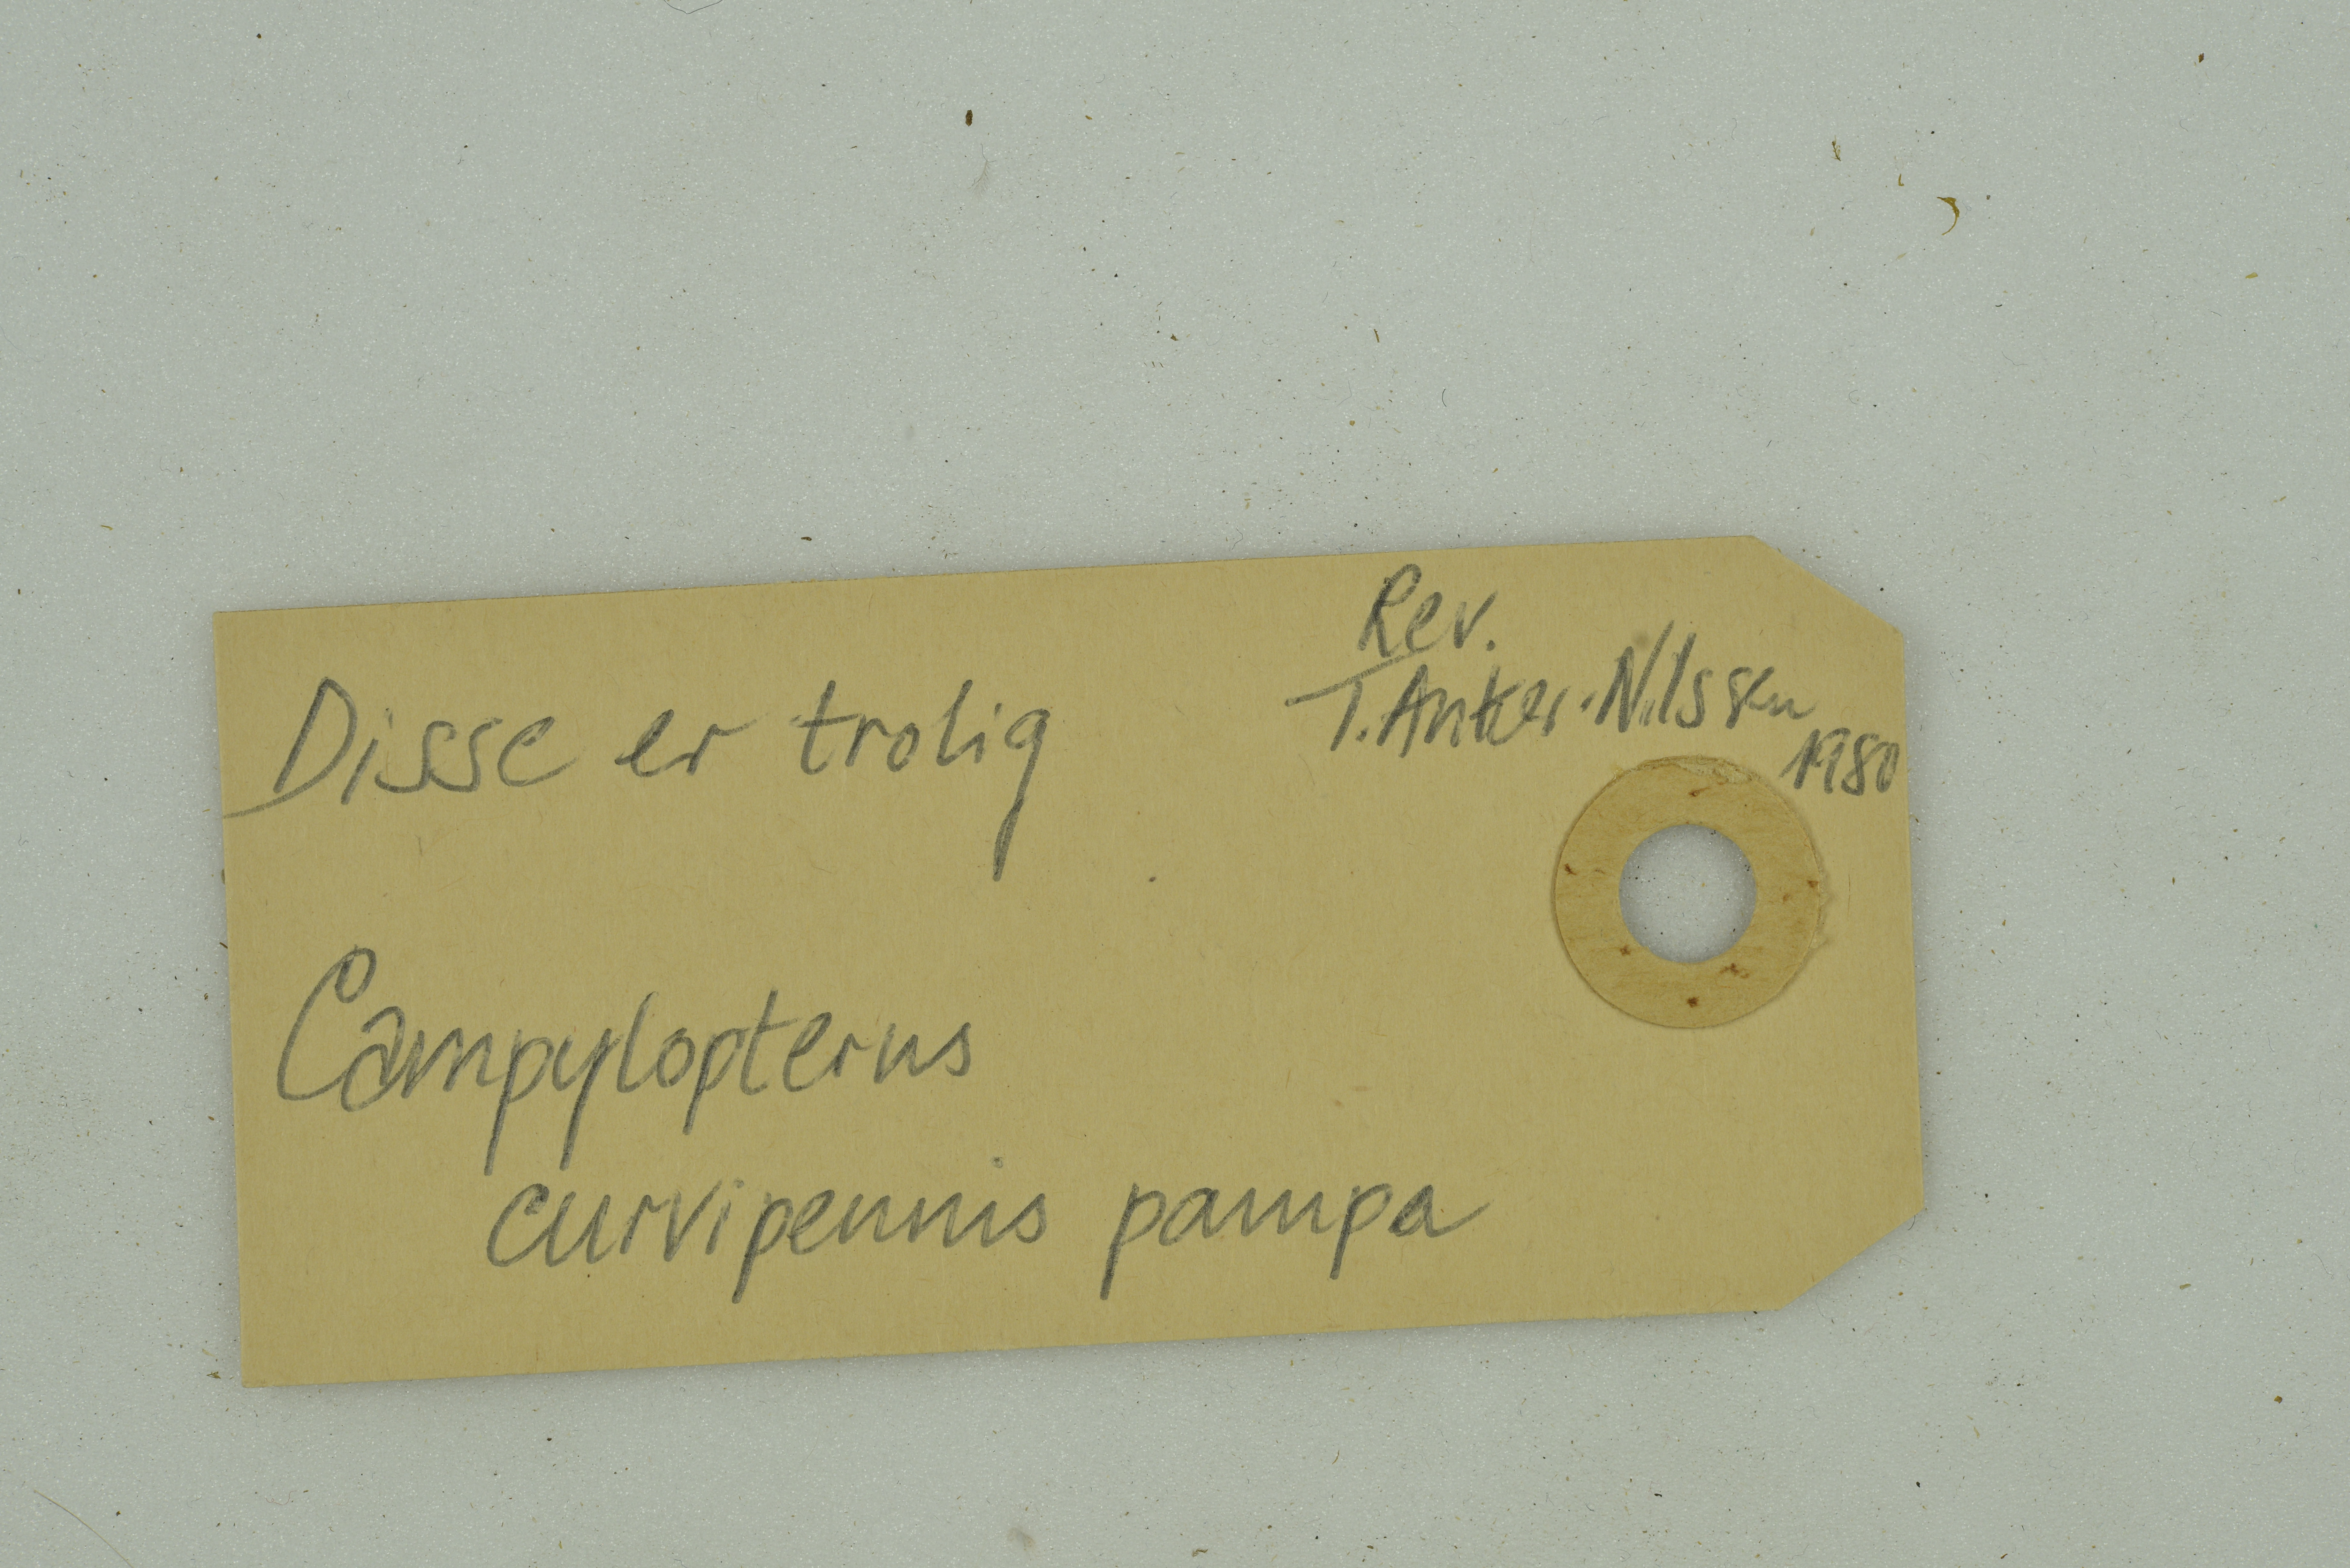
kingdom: Animalia
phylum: Chordata
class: Aves
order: Apodiformes
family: Trochilidae
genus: Pampa
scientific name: Pampa curvipennis
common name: Curve-winged sabrewing
